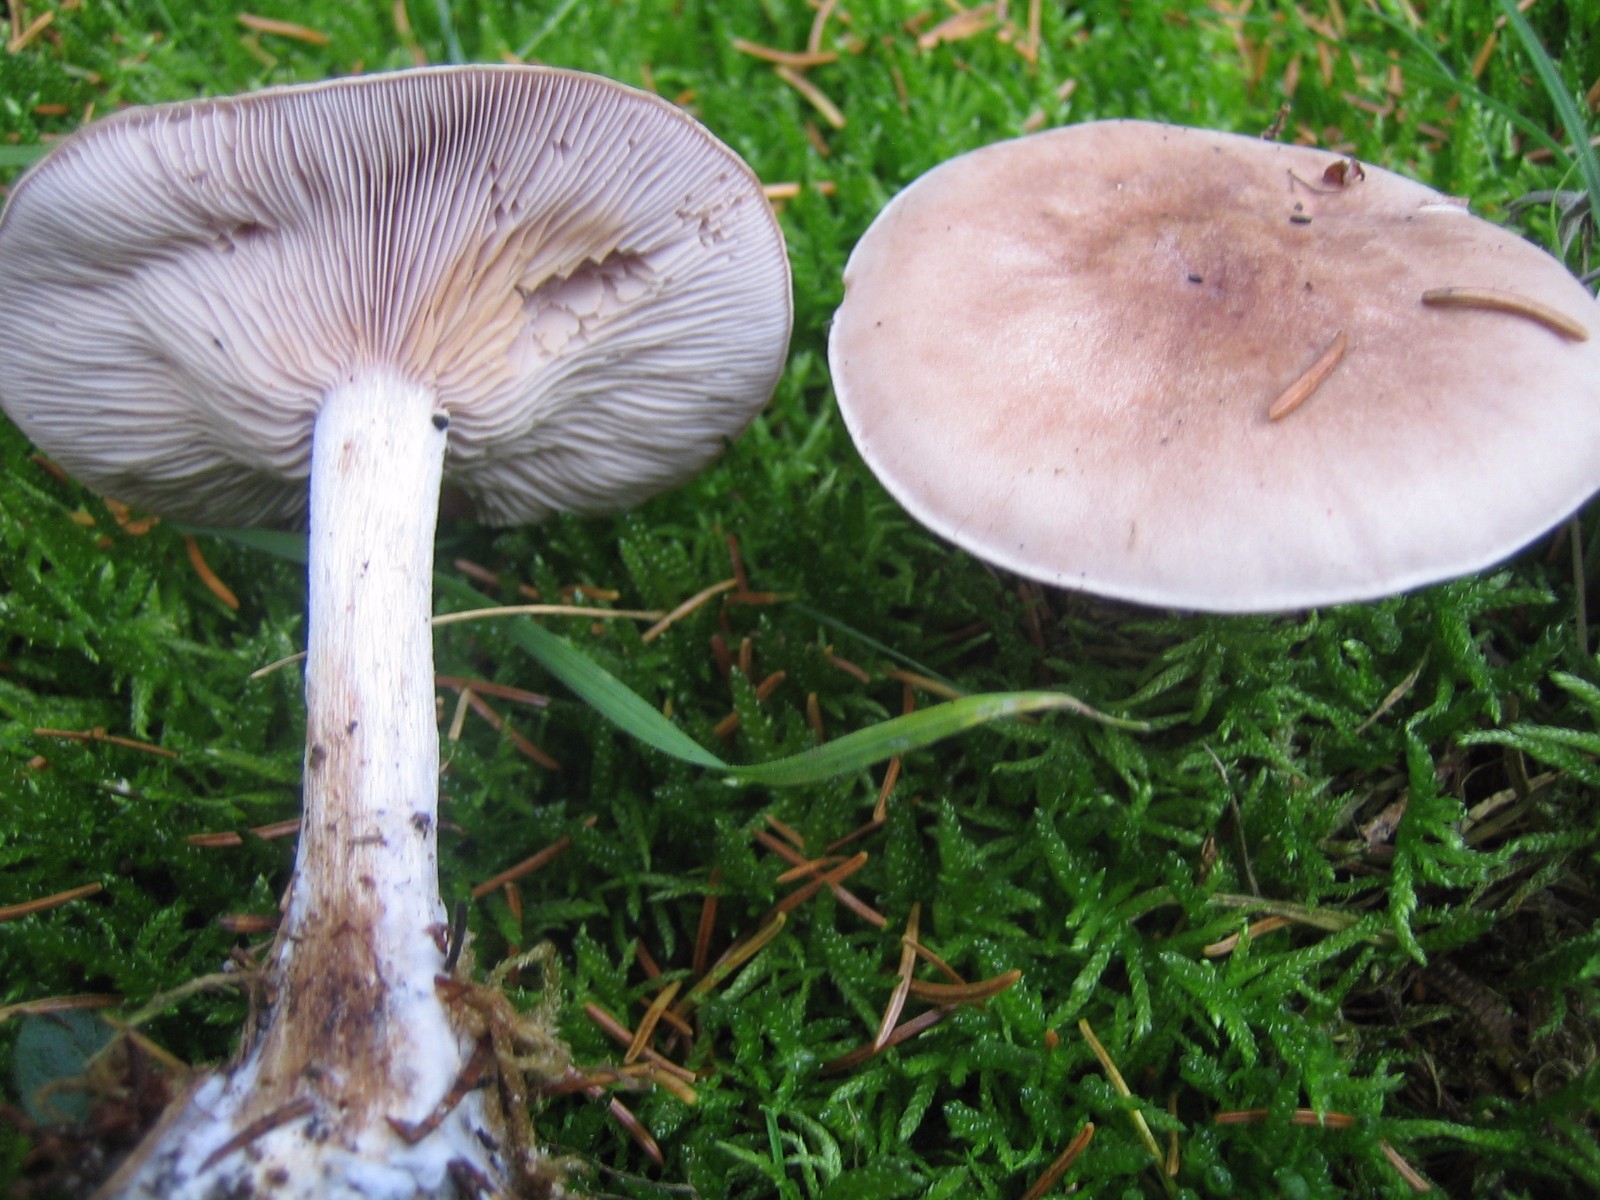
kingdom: Fungi
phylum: Basidiomycota
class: Agaricomycetes
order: Agaricales
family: Tricholomataceae
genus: Lepista
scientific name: Lepista nuda
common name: violet hekseringshat
